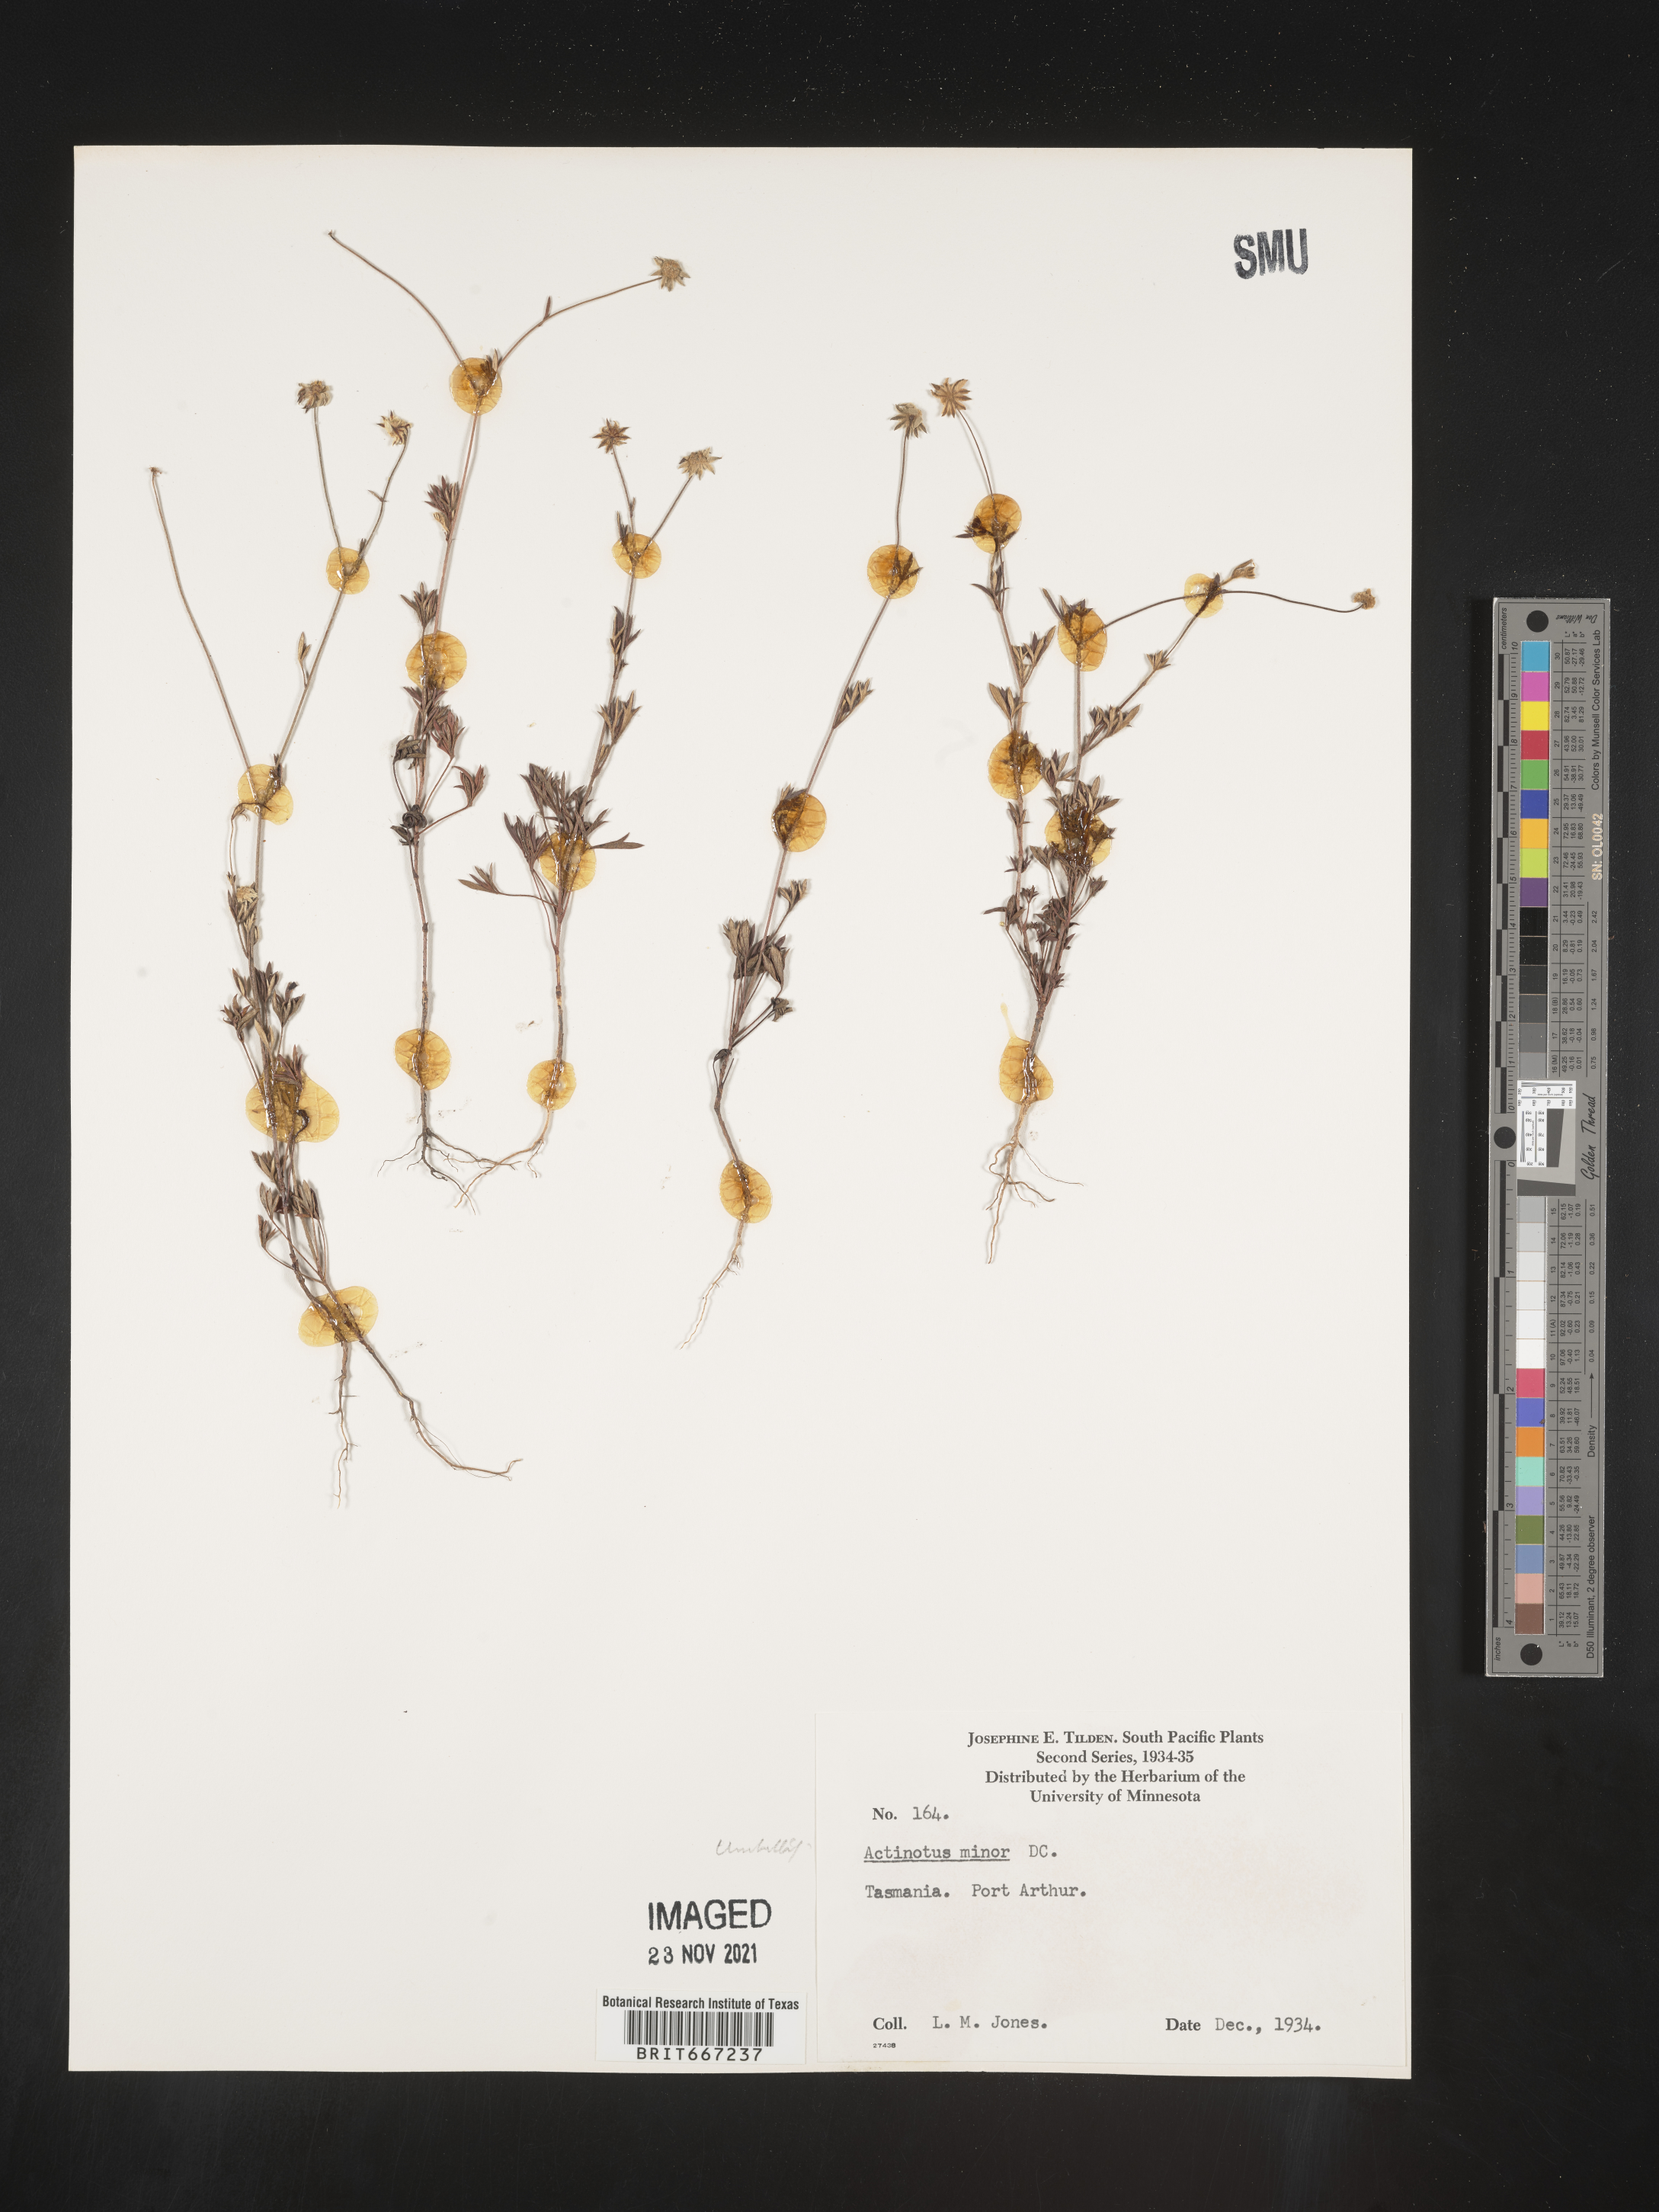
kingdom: Plantae
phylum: Tracheophyta
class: Magnoliopsida
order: Apiales
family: Apiaceae
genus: Actinotus
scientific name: Actinotus
